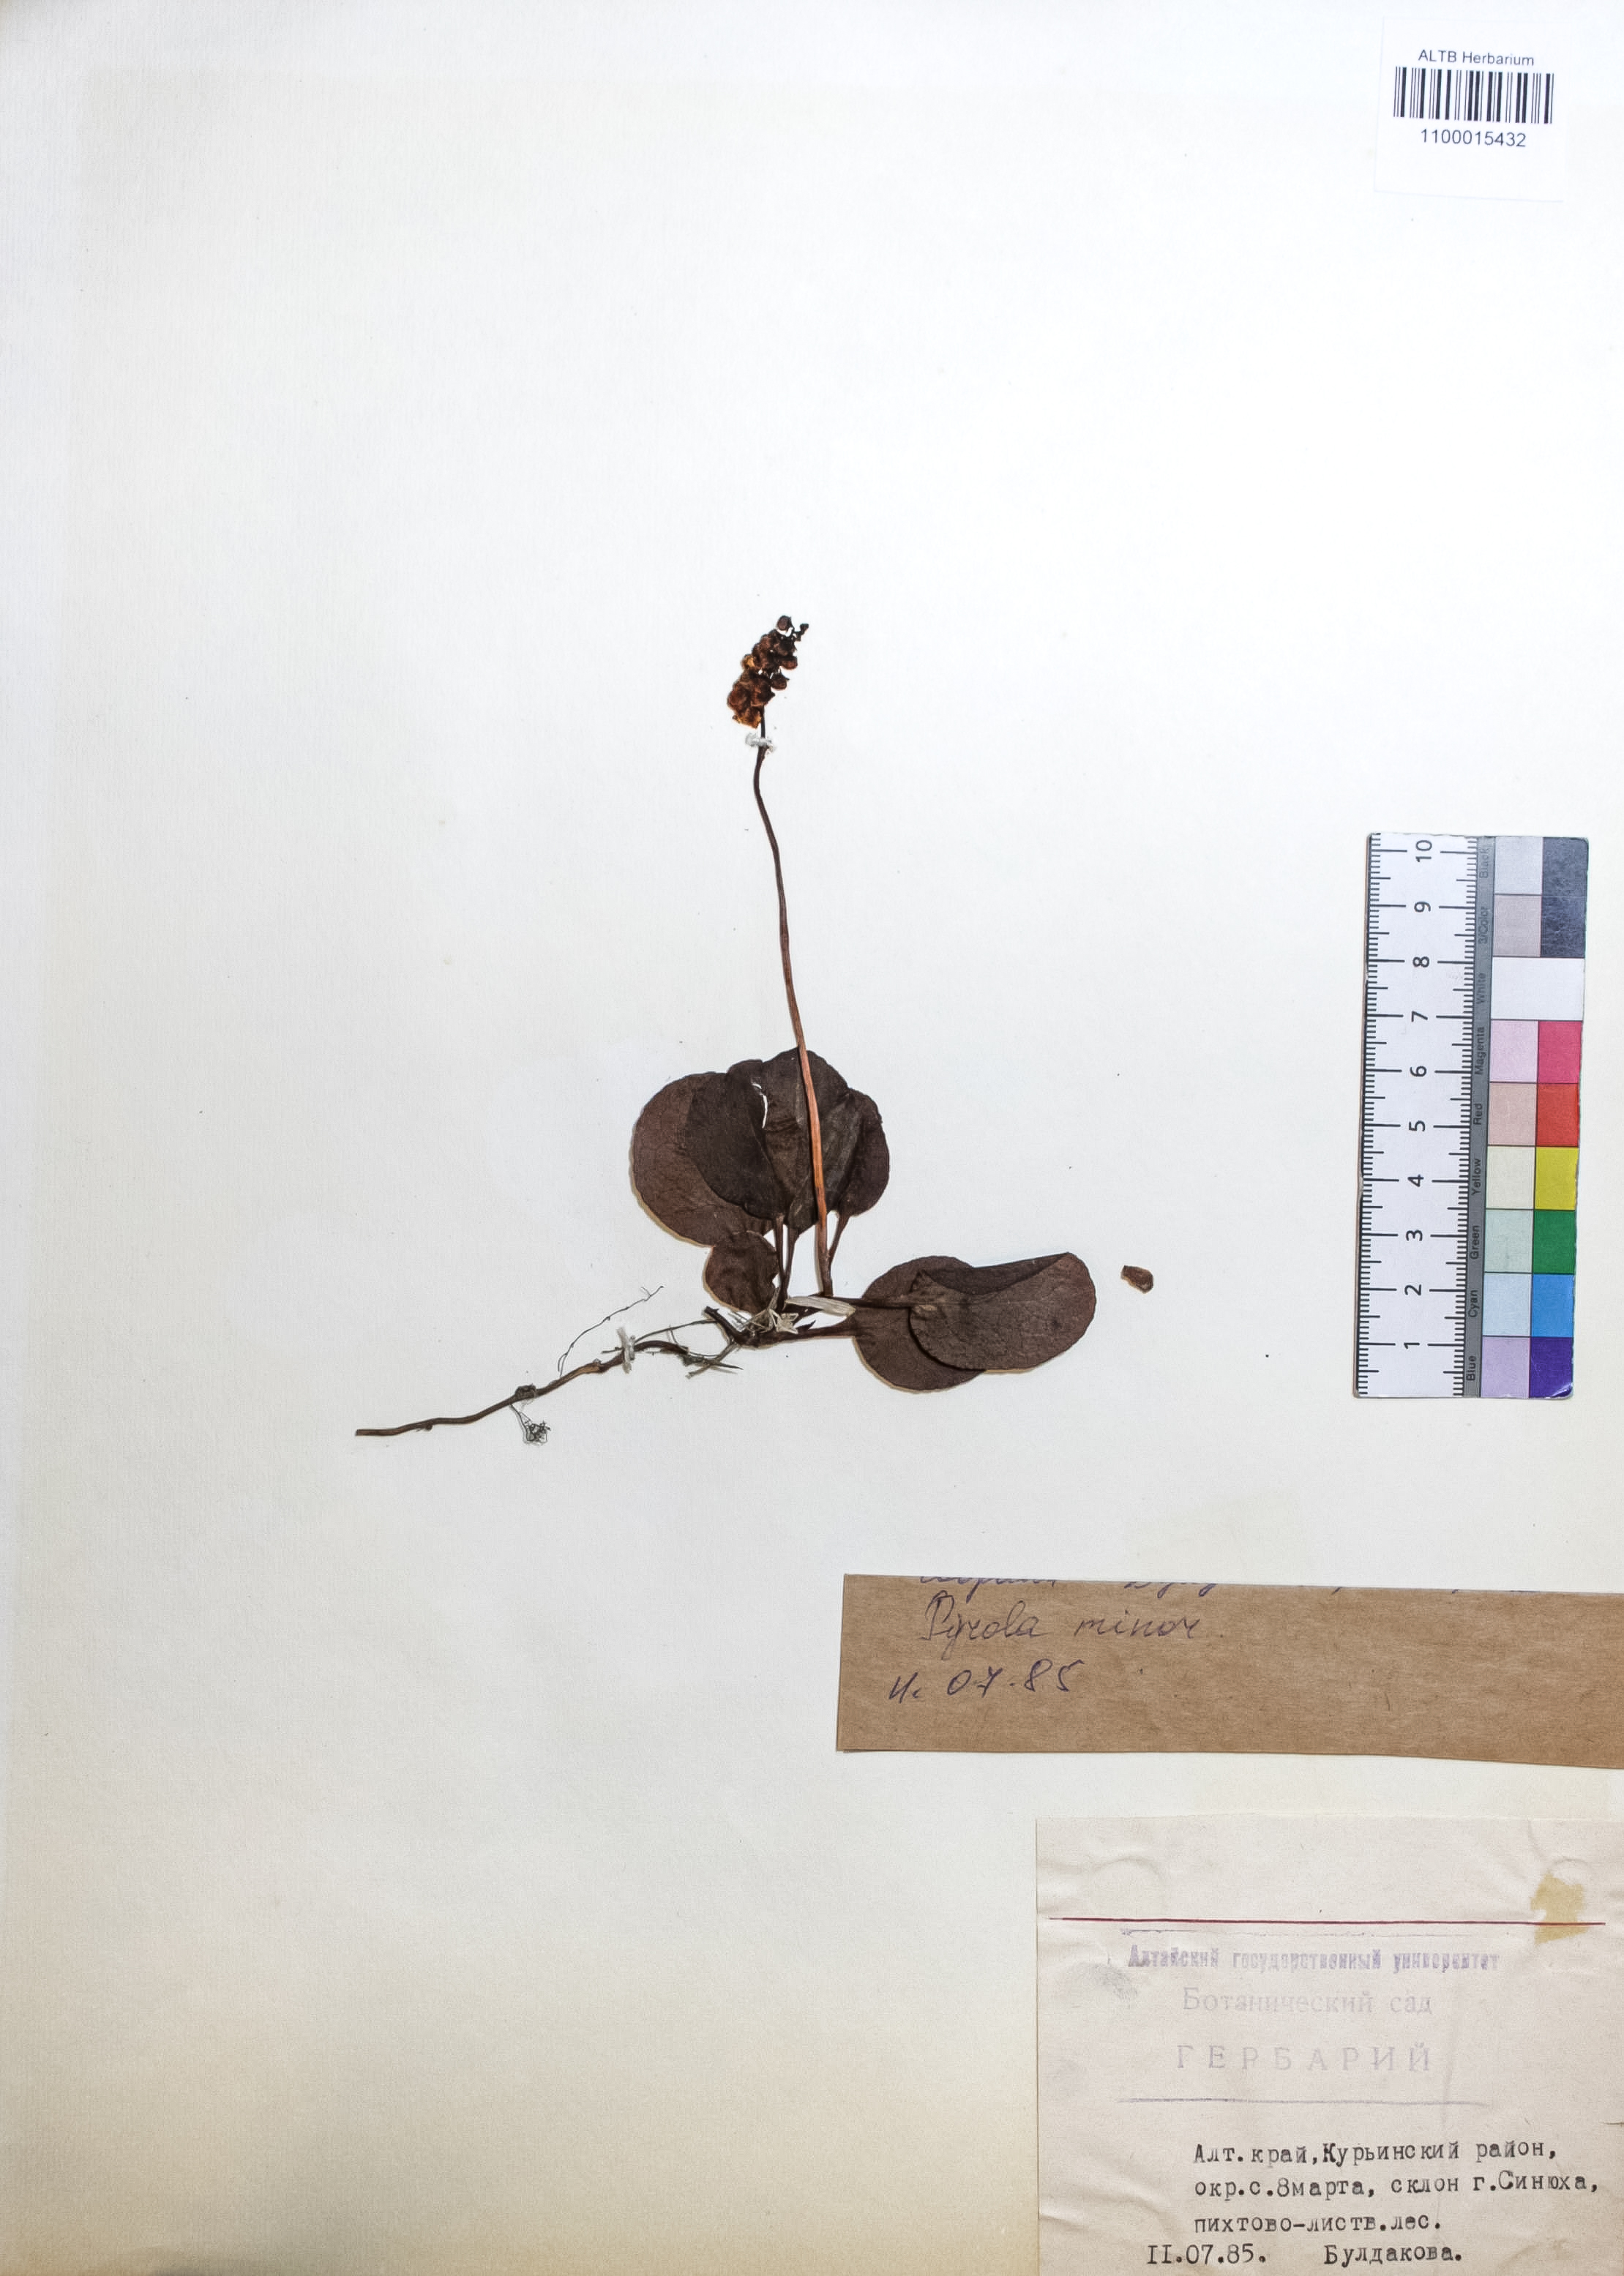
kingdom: Plantae
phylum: Tracheophyta
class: Magnoliopsida
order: Ericales
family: Ericaceae
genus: Pyrola
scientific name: Pyrola minor
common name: Common wintergreen
